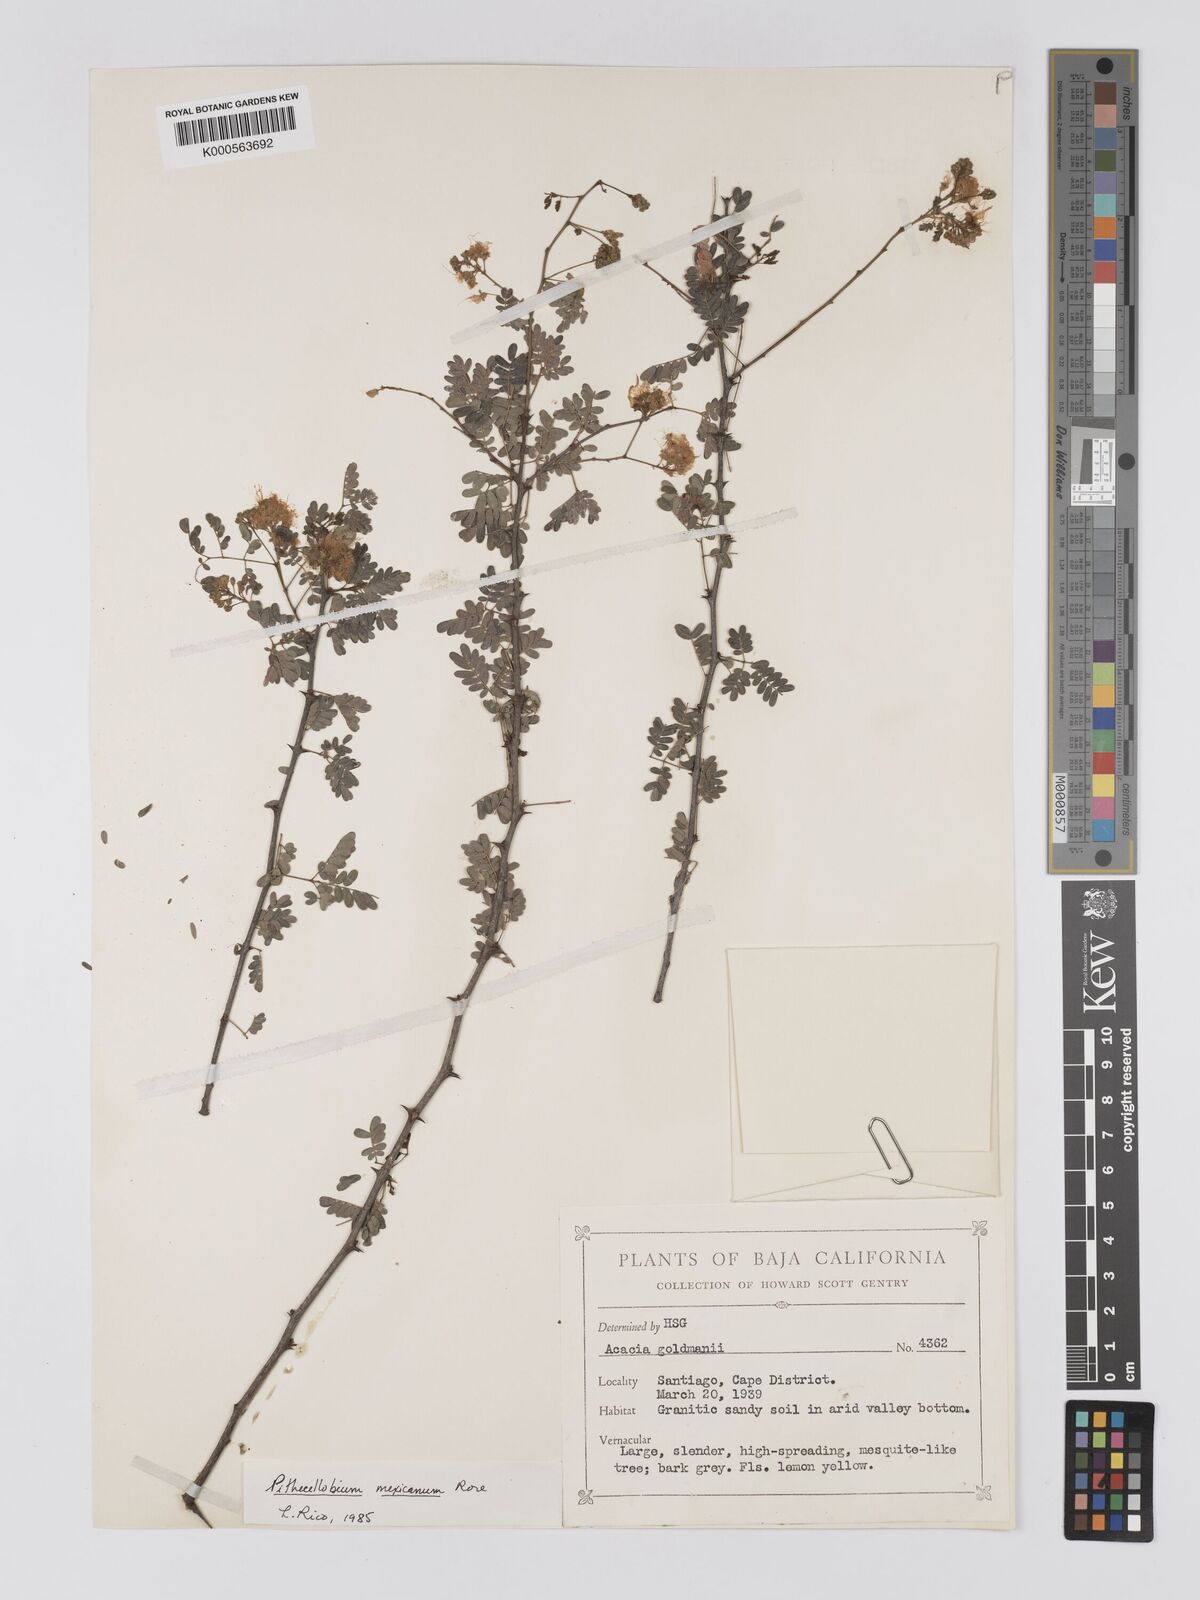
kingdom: Plantae
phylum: Tracheophyta
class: Magnoliopsida
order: Fabales
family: Fabaceae
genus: Havardia
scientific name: Havardia mexicana
